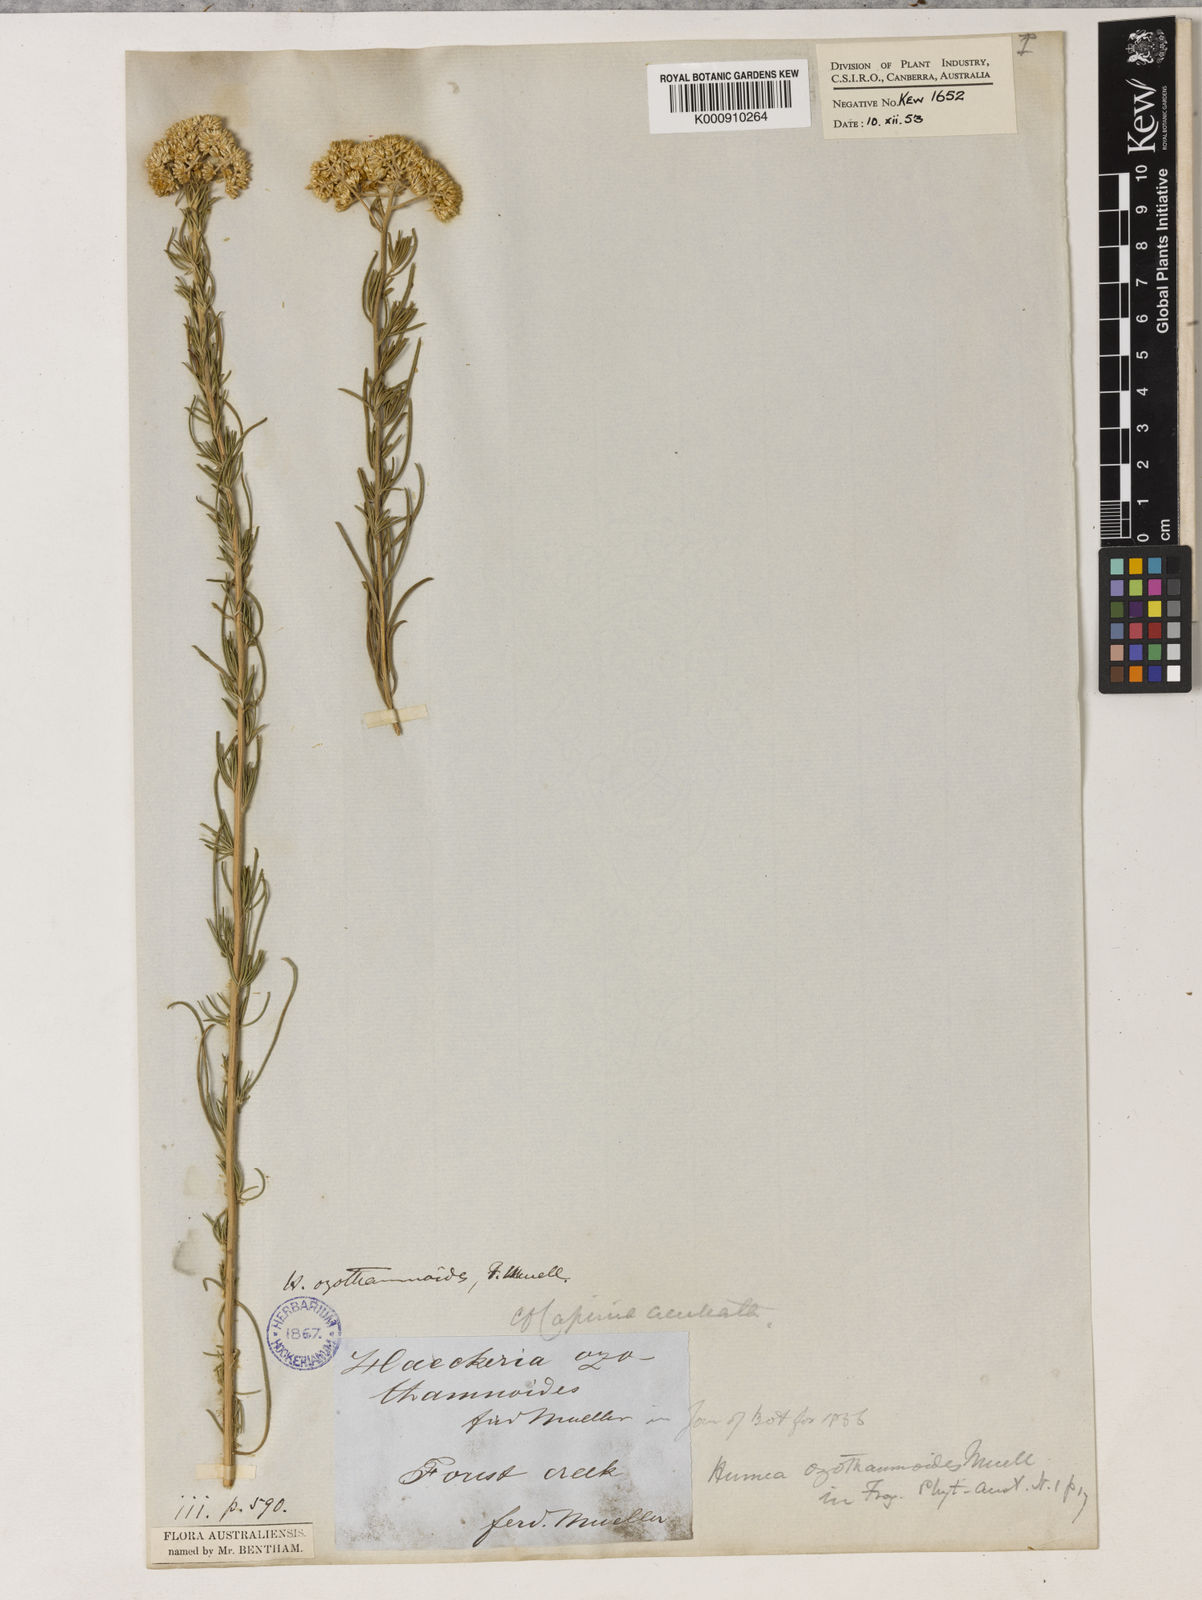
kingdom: Plantae
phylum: Tracheophyta
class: Magnoliopsida
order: Asterales
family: Asteraceae
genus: Cassinia
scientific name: Cassinia ozothamnoides
